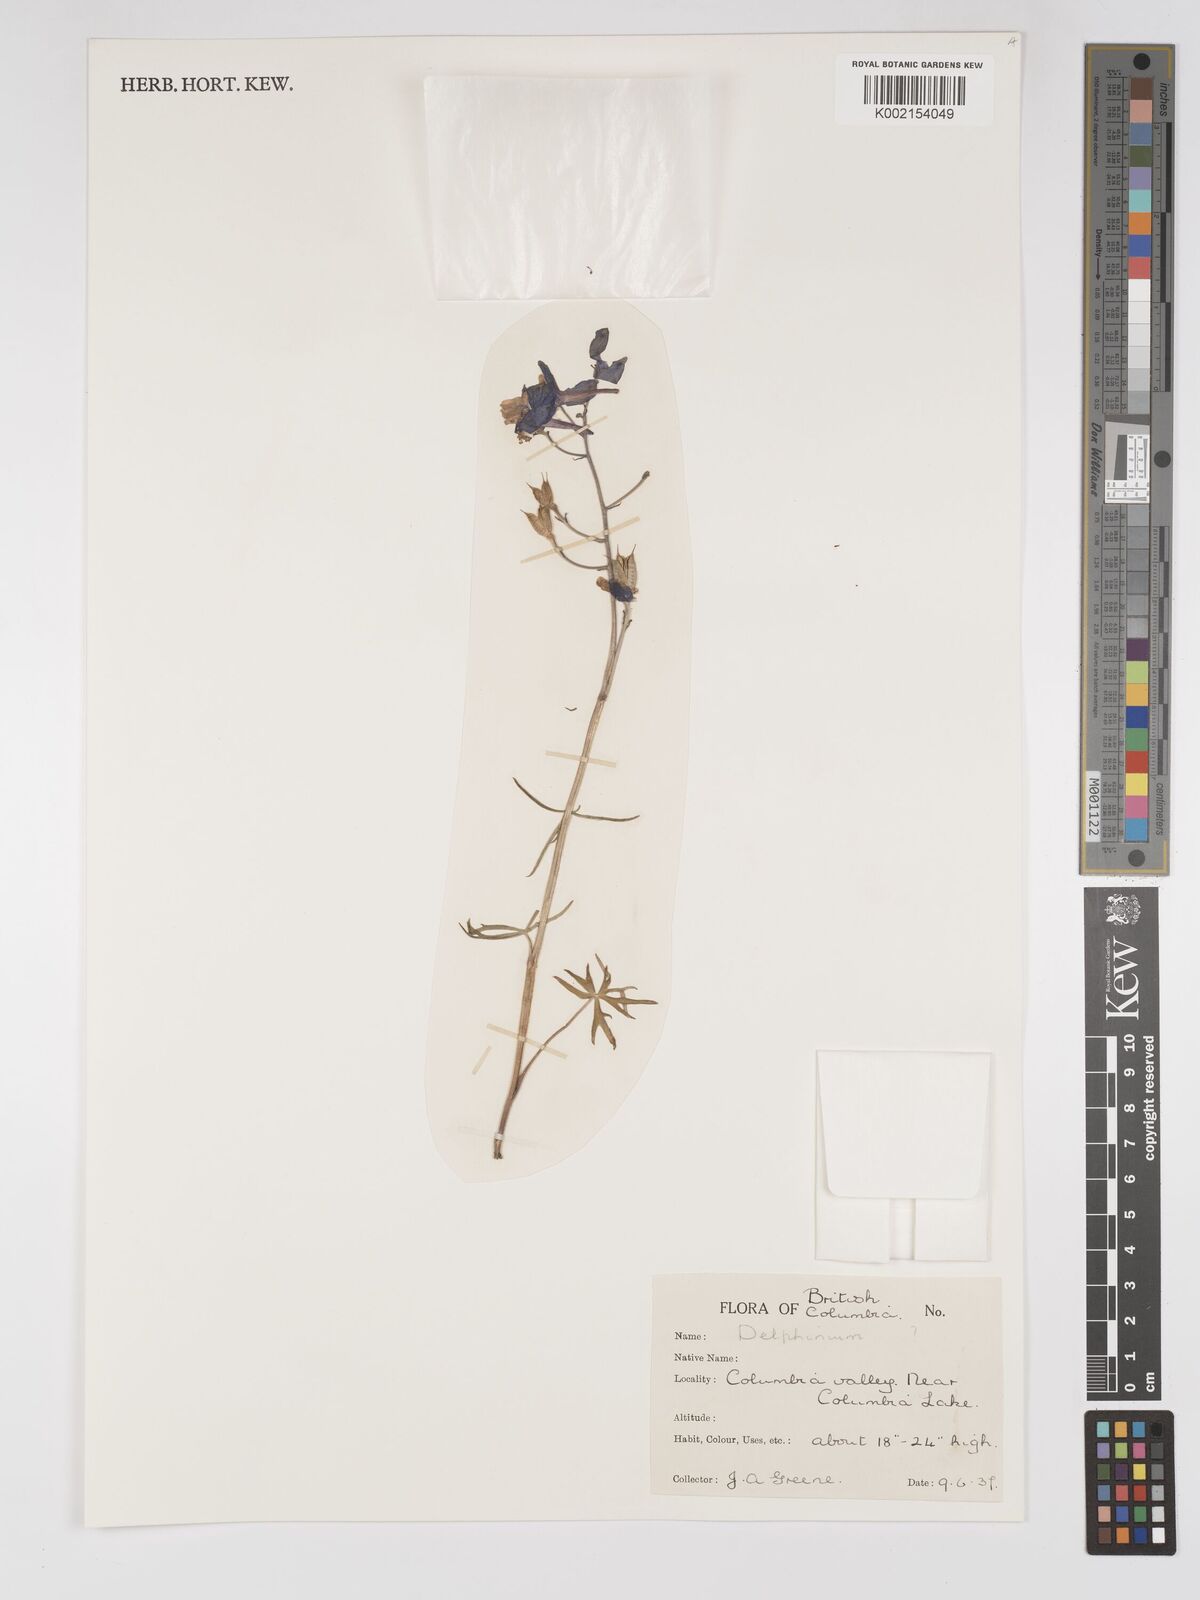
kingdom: Plantae
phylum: Tracheophyta
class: Magnoliopsida
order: Ranunculales
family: Ranunculaceae
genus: Delphinium
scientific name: Delphinium
